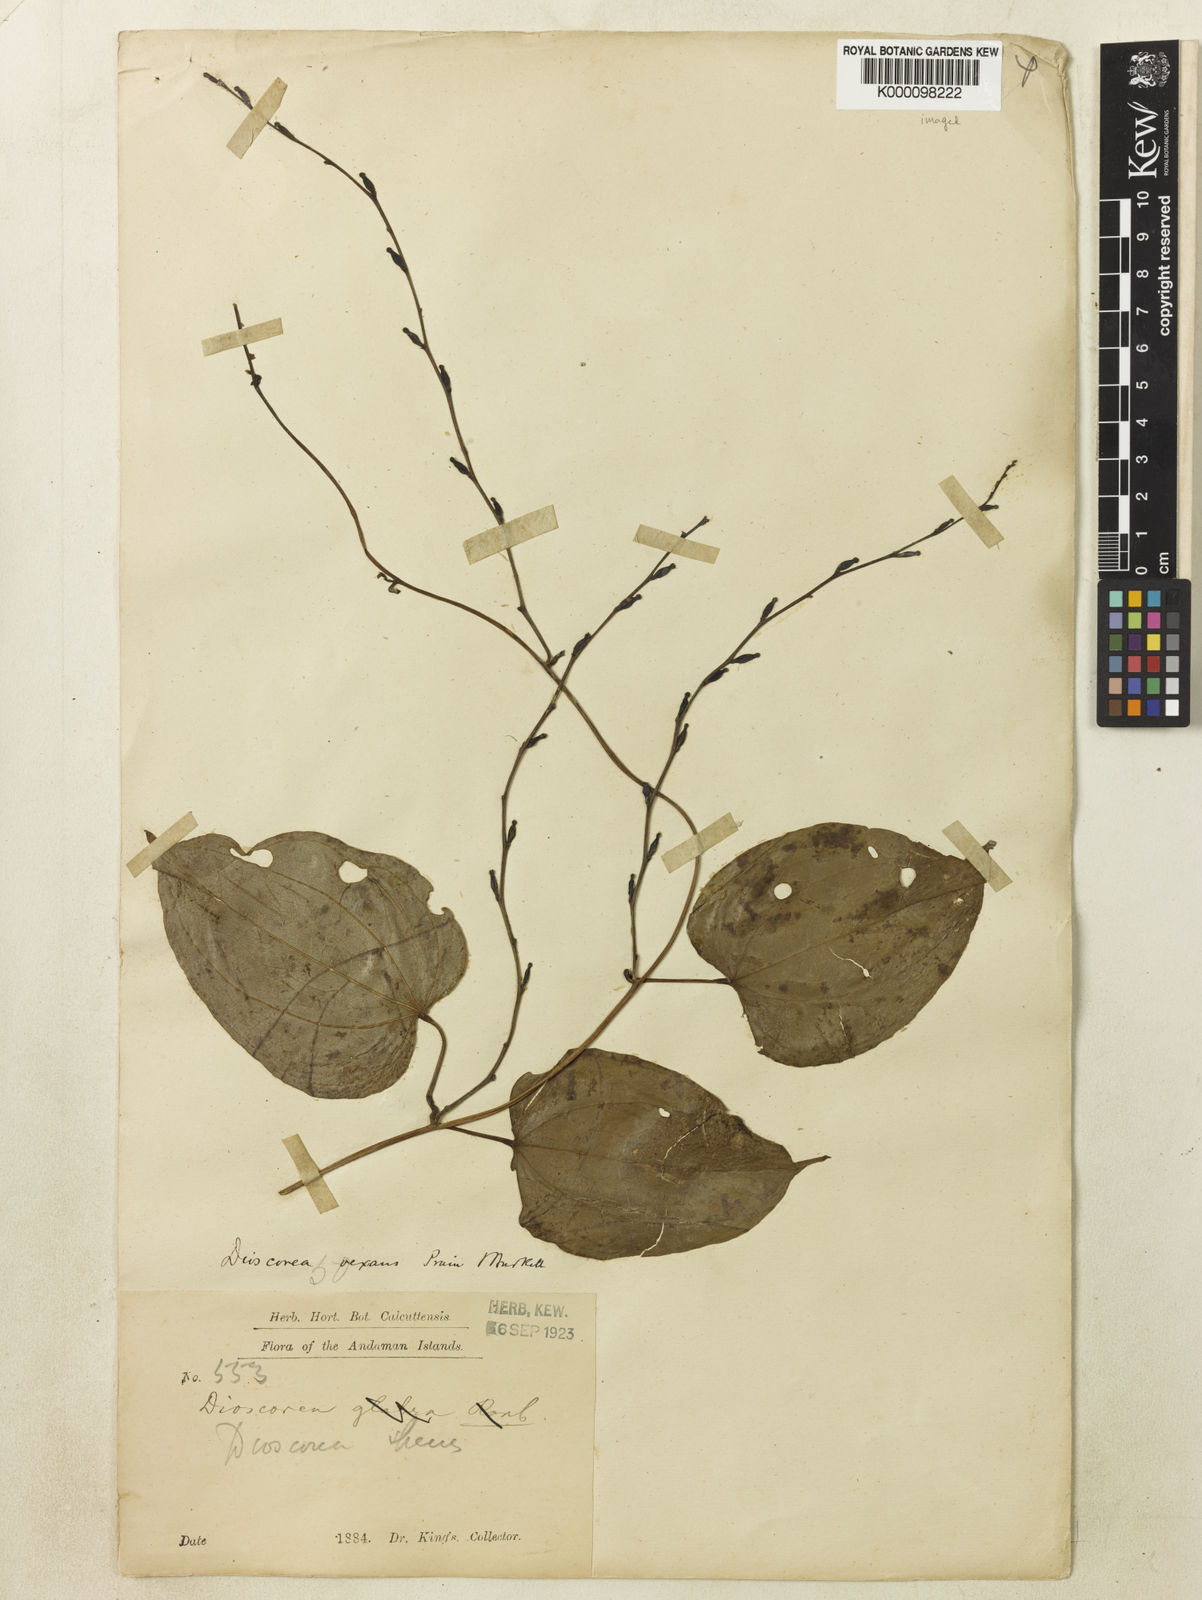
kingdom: Plantae
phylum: Tracheophyta
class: Liliopsida
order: Dioscoreales
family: Dioscoreaceae
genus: Dioscorea
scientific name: Dioscorea vexans
